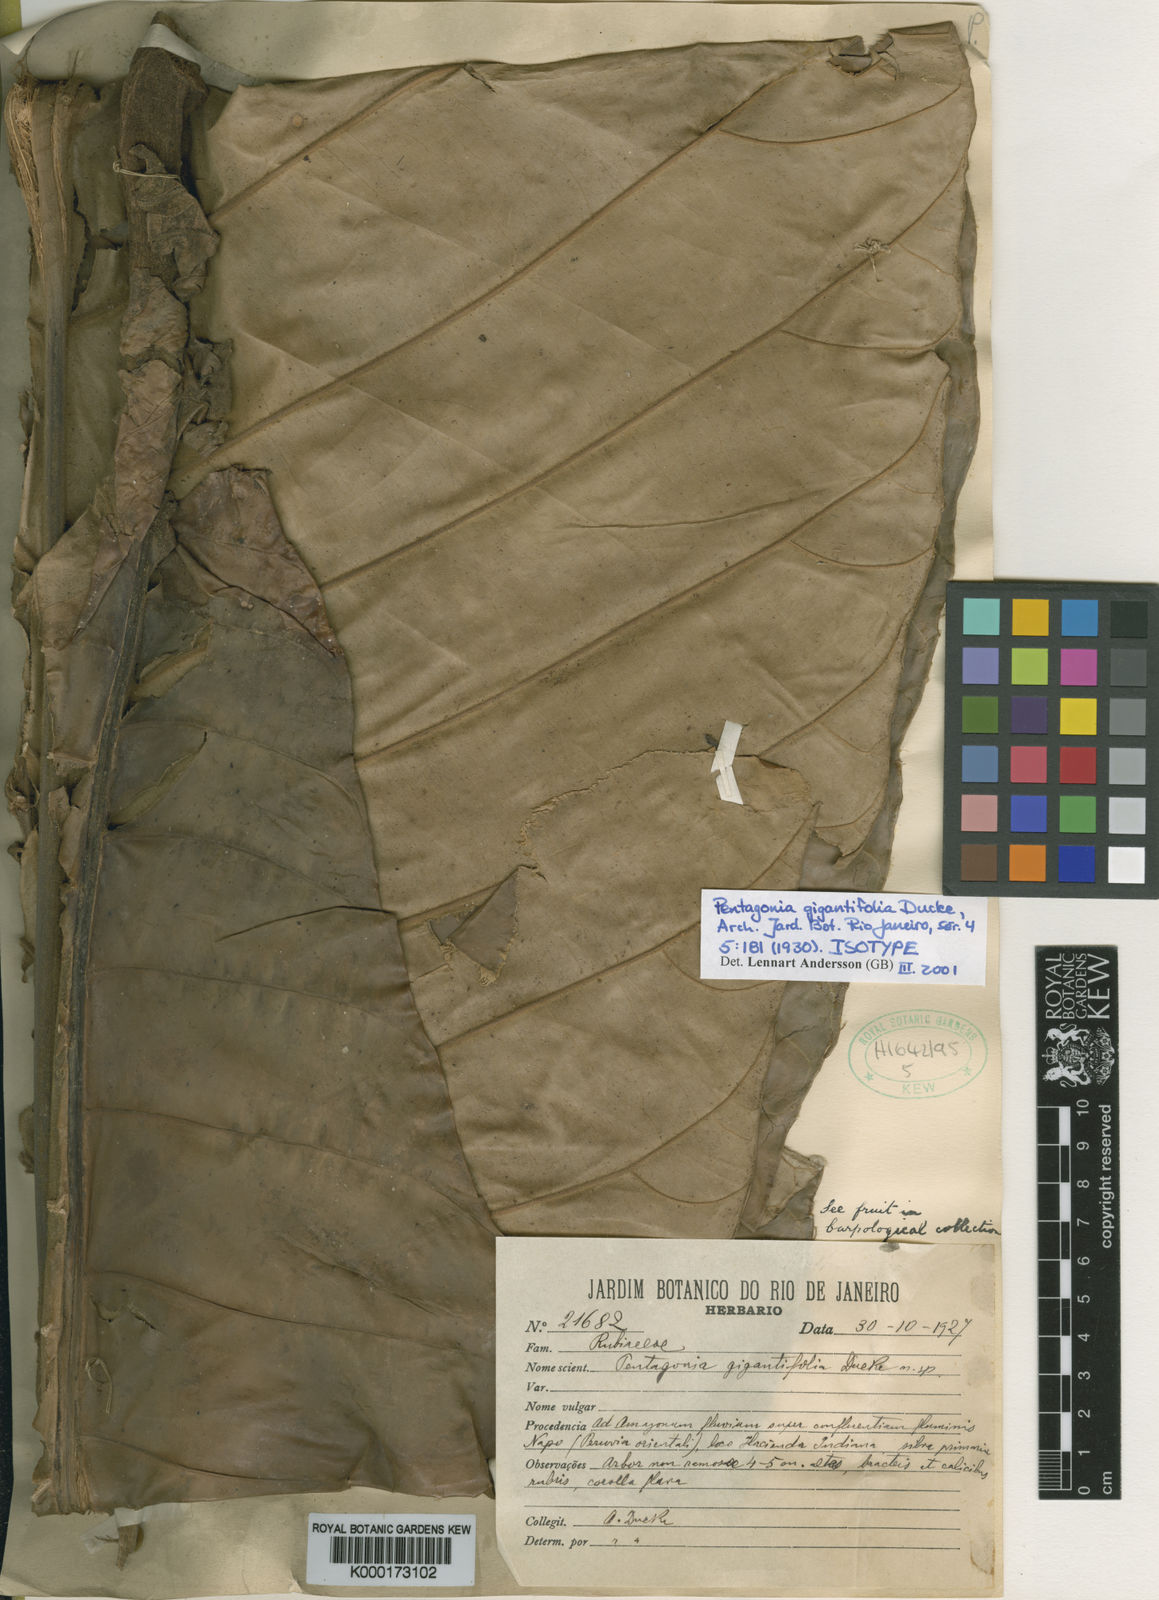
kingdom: Plantae
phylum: Tracheophyta
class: Magnoliopsida
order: Gentianales
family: Rubiaceae
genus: Pentagonia
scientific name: Pentagonia gigantifolia
